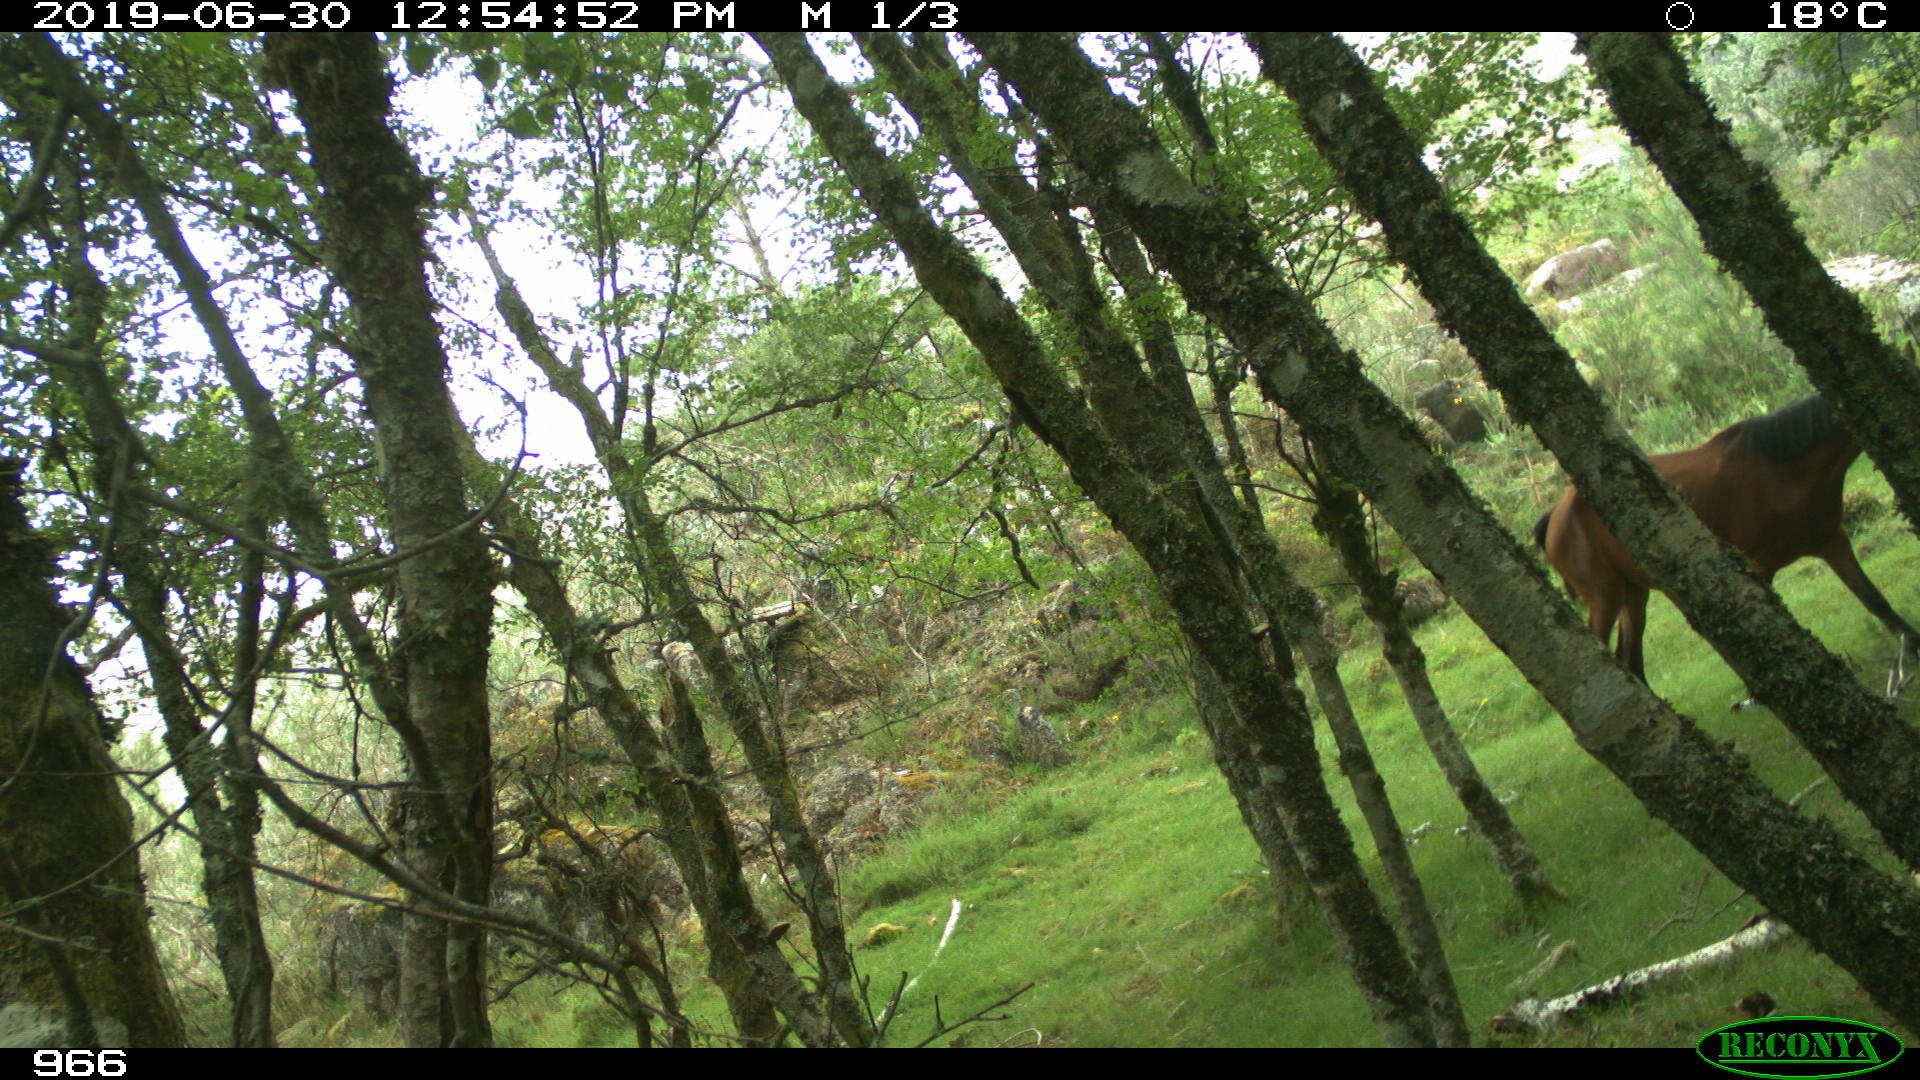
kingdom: Animalia
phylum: Chordata
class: Mammalia
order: Perissodactyla
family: Equidae
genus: Equus
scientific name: Equus caballus
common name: Horse
